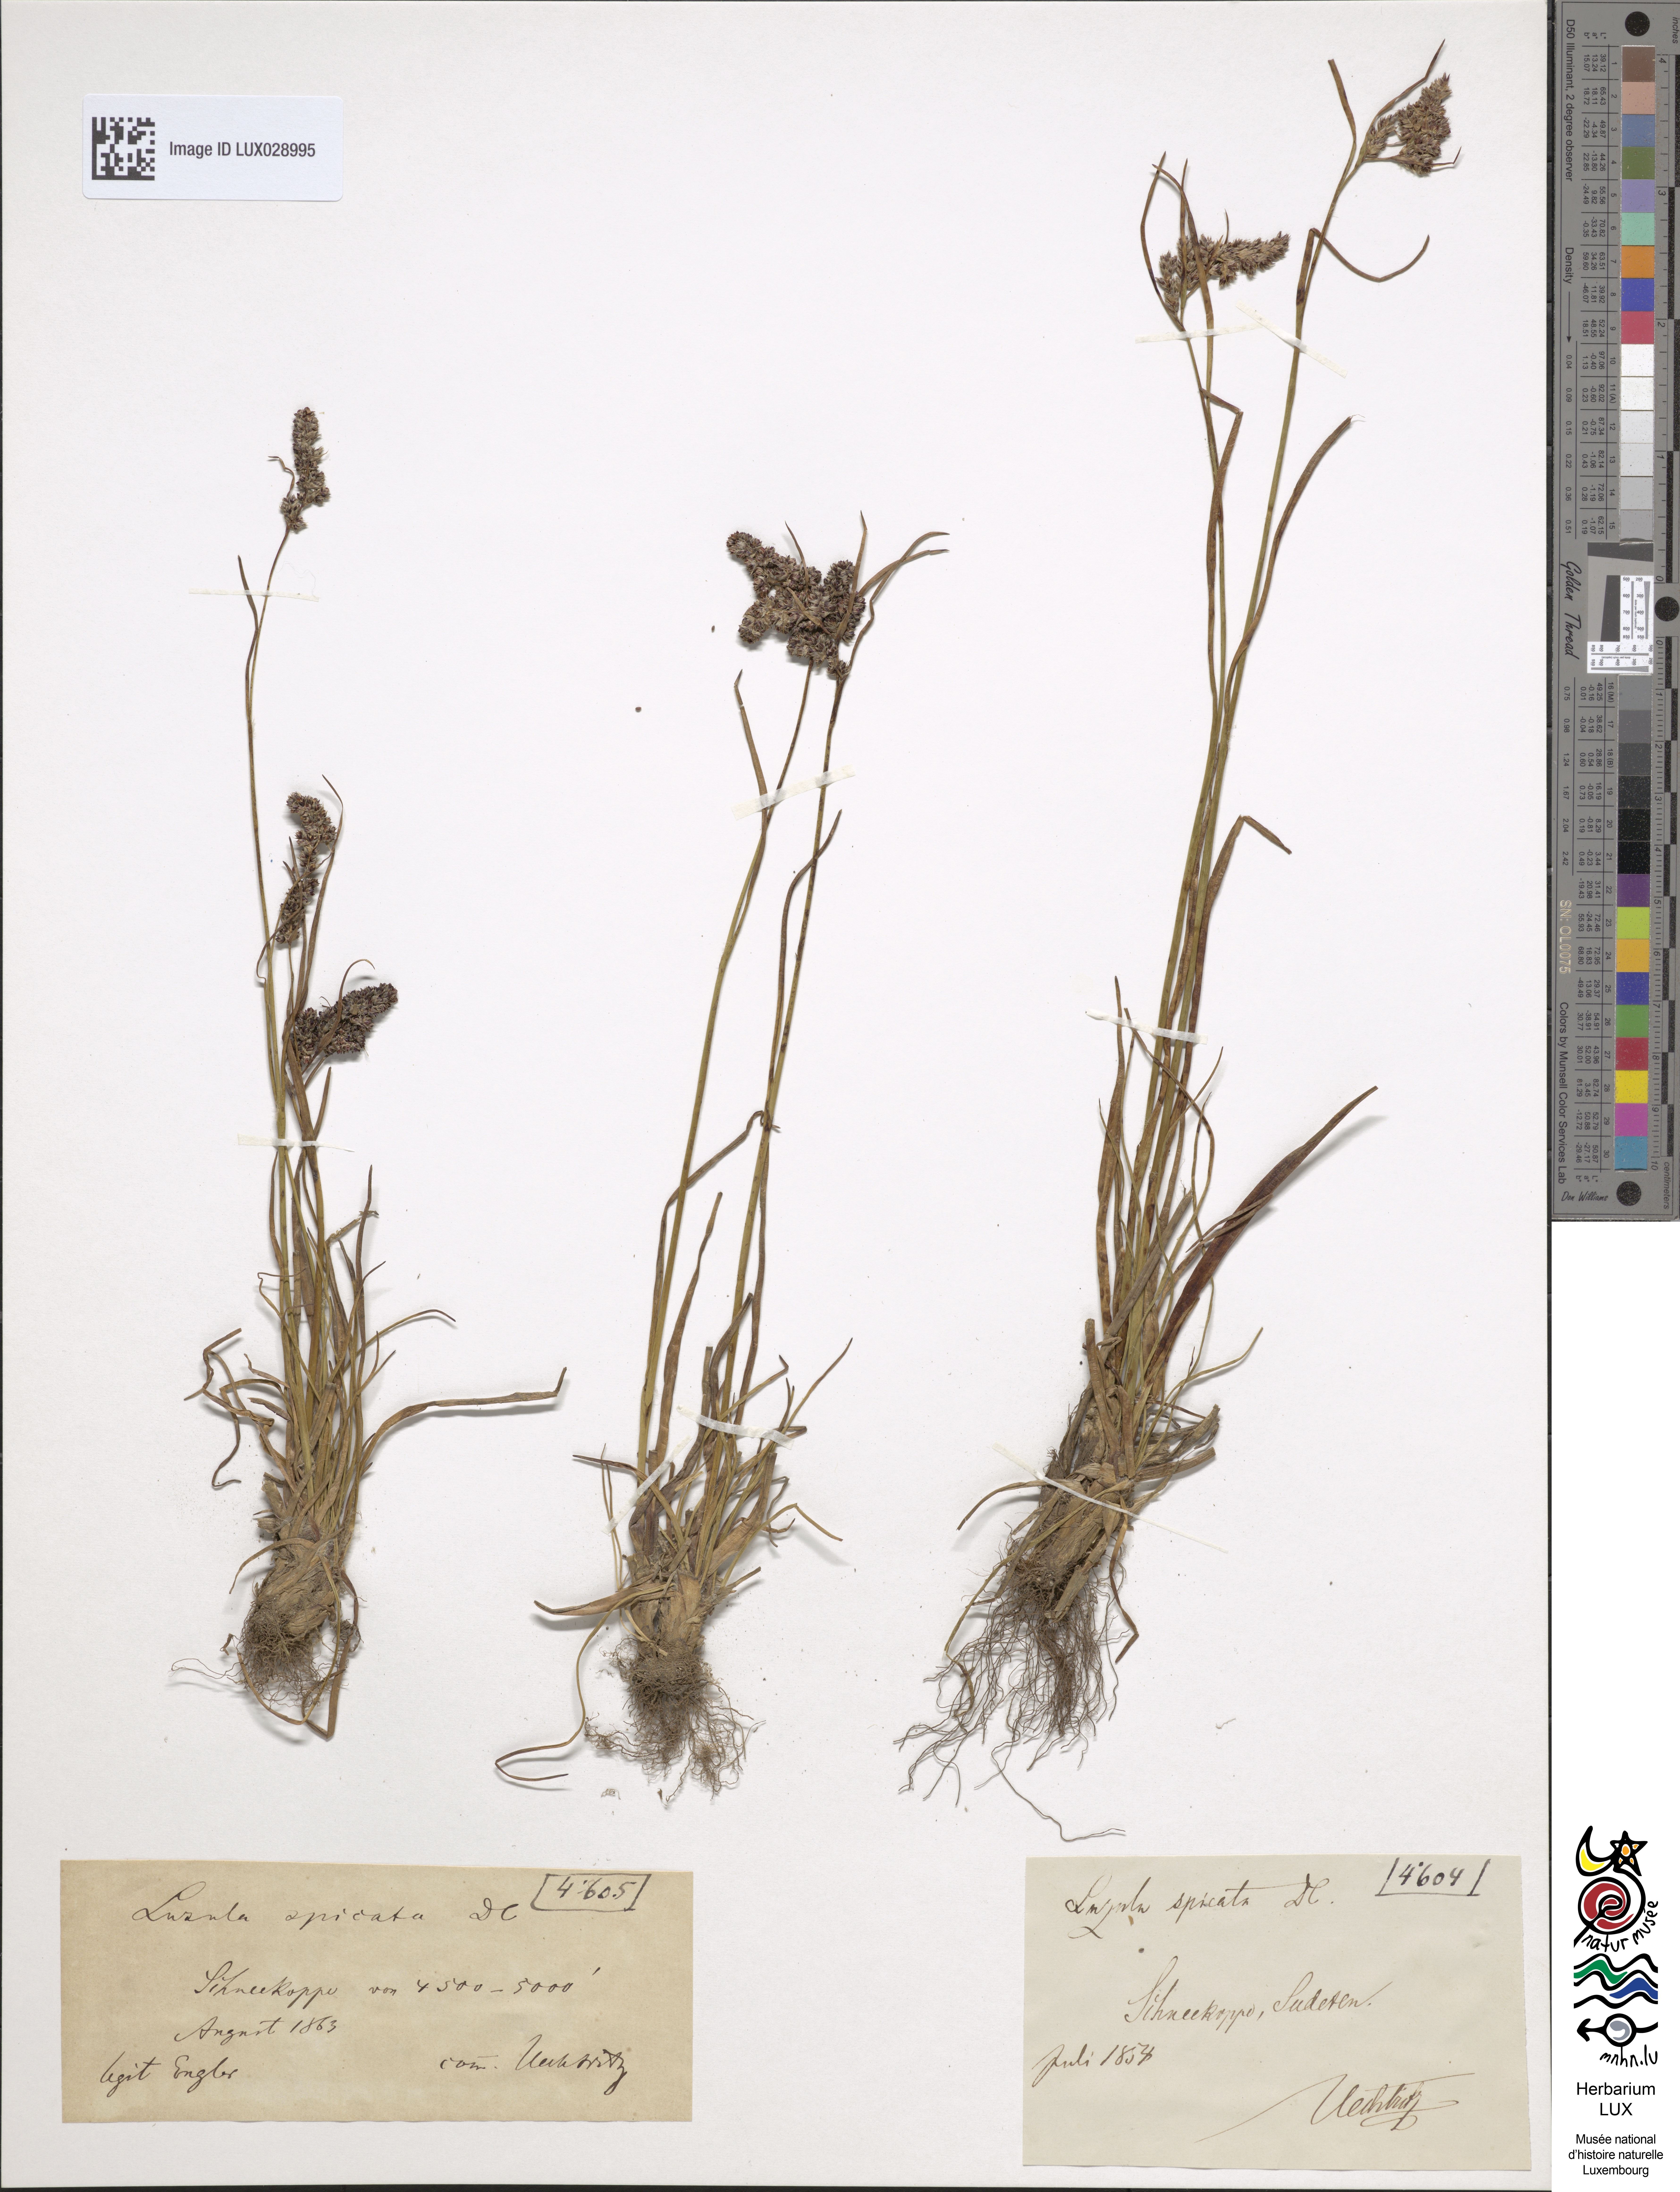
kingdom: Plantae
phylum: Tracheophyta
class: Liliopsida
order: Poales
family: Juncaceae
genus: Luzula
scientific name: Luzula spicata
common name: Spiked wood-rush
